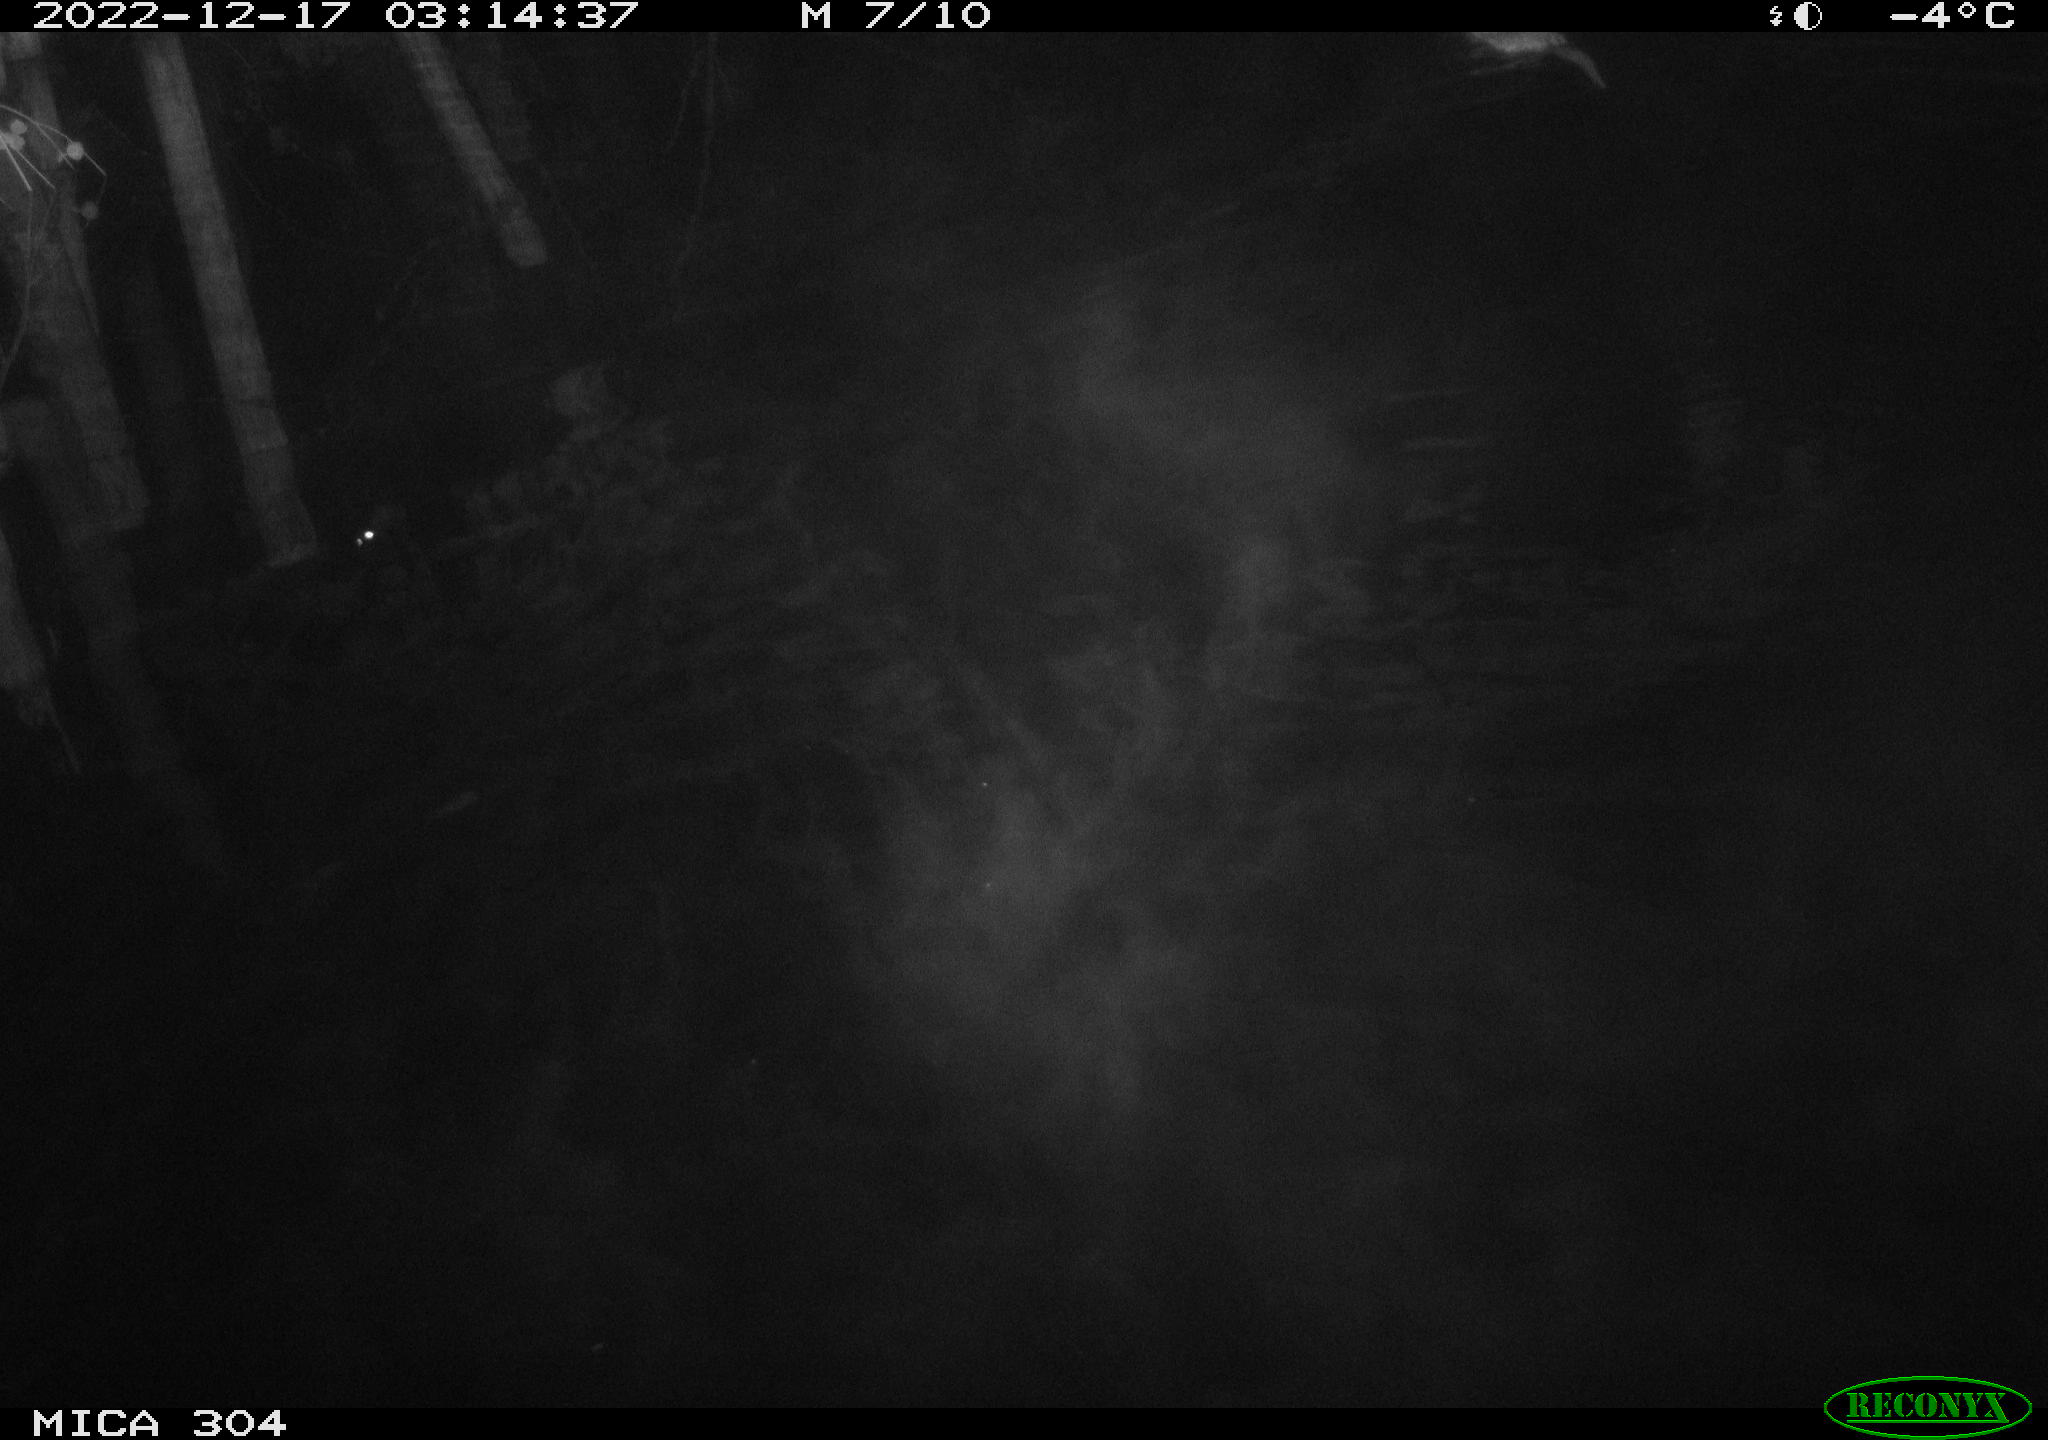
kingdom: Animalia
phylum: Chordata
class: Mammalia
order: Rodentia
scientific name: Rodentia
